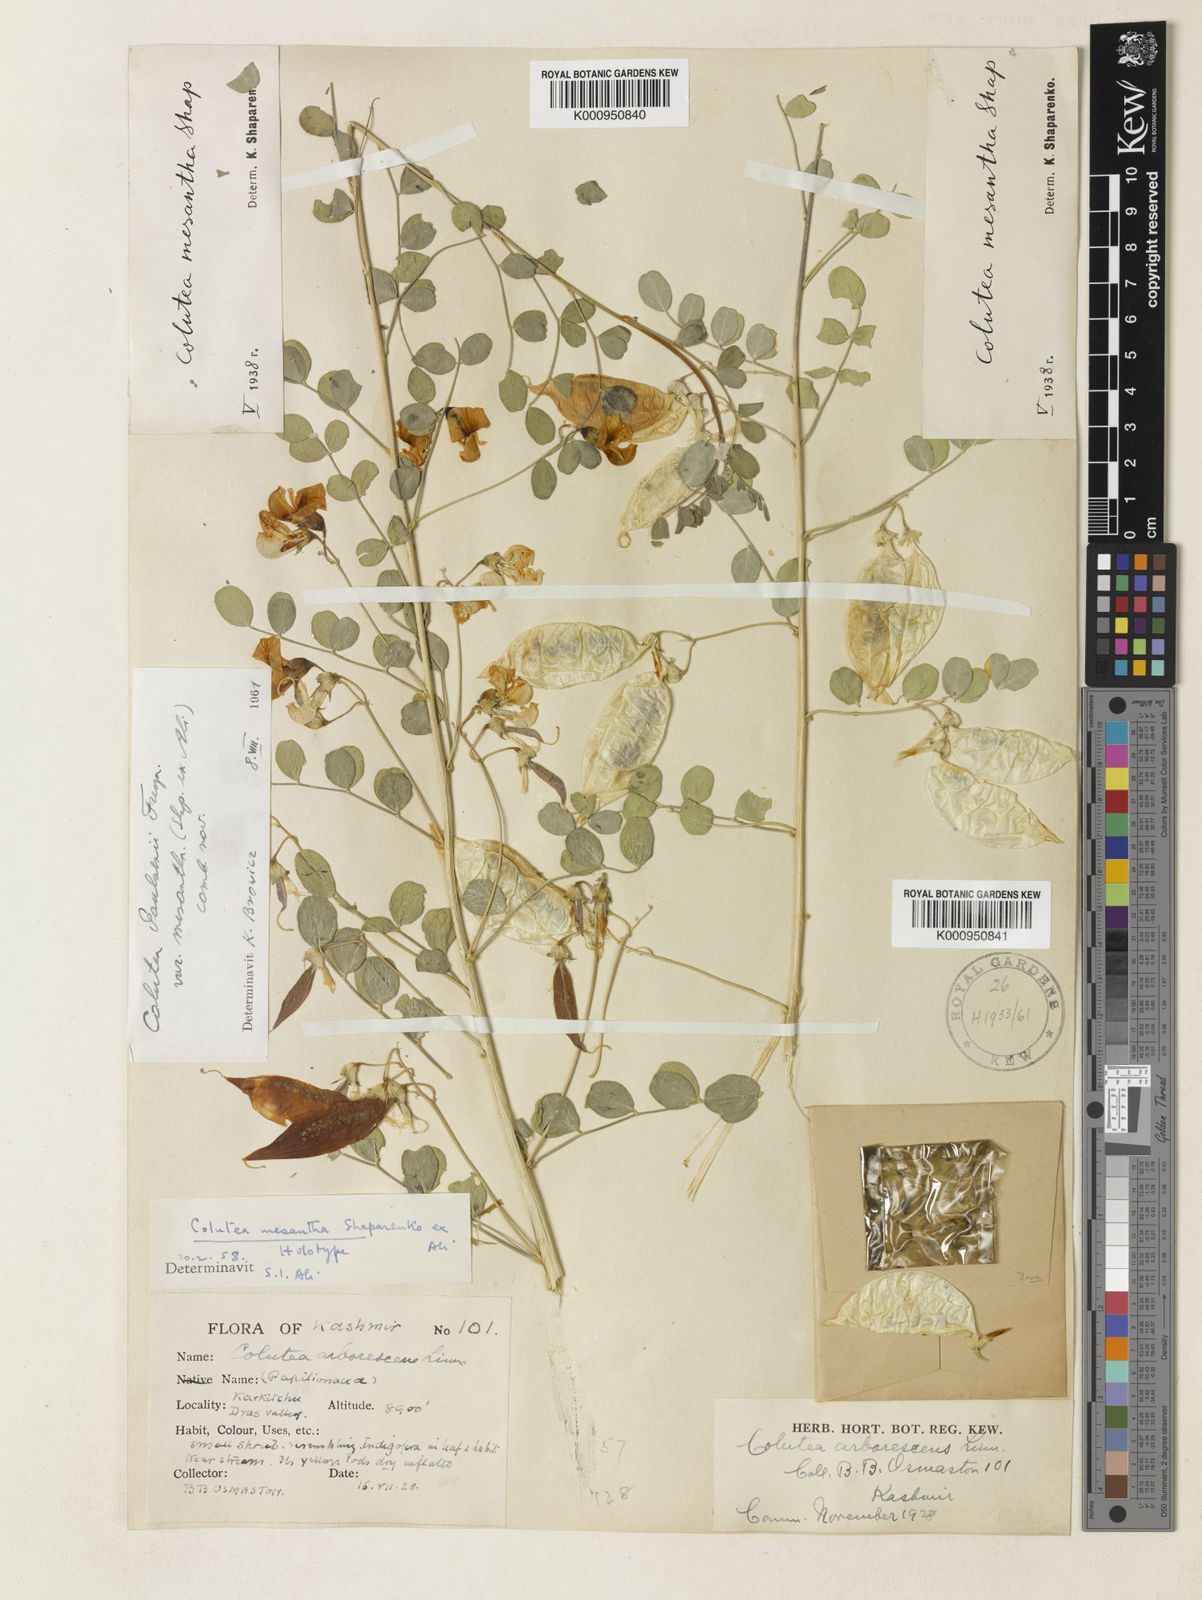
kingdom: Plantae
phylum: Tracheophyta
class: Magnoliopsida
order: Fabales
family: Fabaceae
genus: Colutea
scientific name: Colutea arborescens
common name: Bladder-senna
